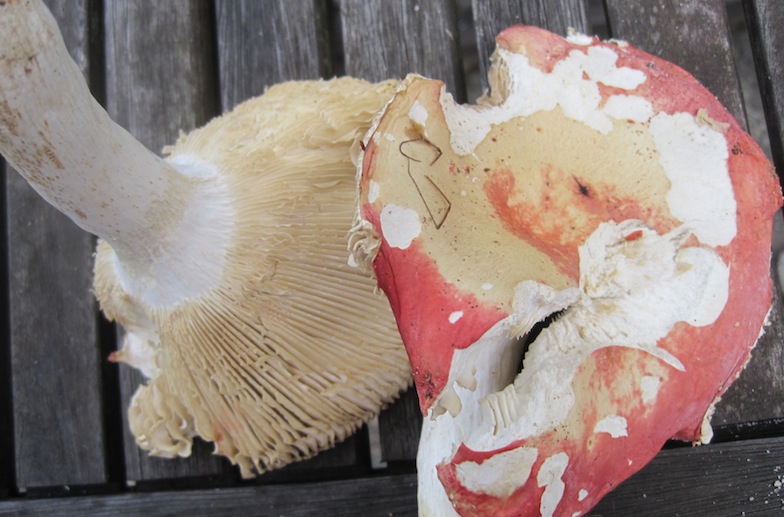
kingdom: Fungi
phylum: Basidiomycota
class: Agaricomycetes
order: Russulales
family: Russulaceae
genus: Russula
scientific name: Russula aurora
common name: rosa skørhat
